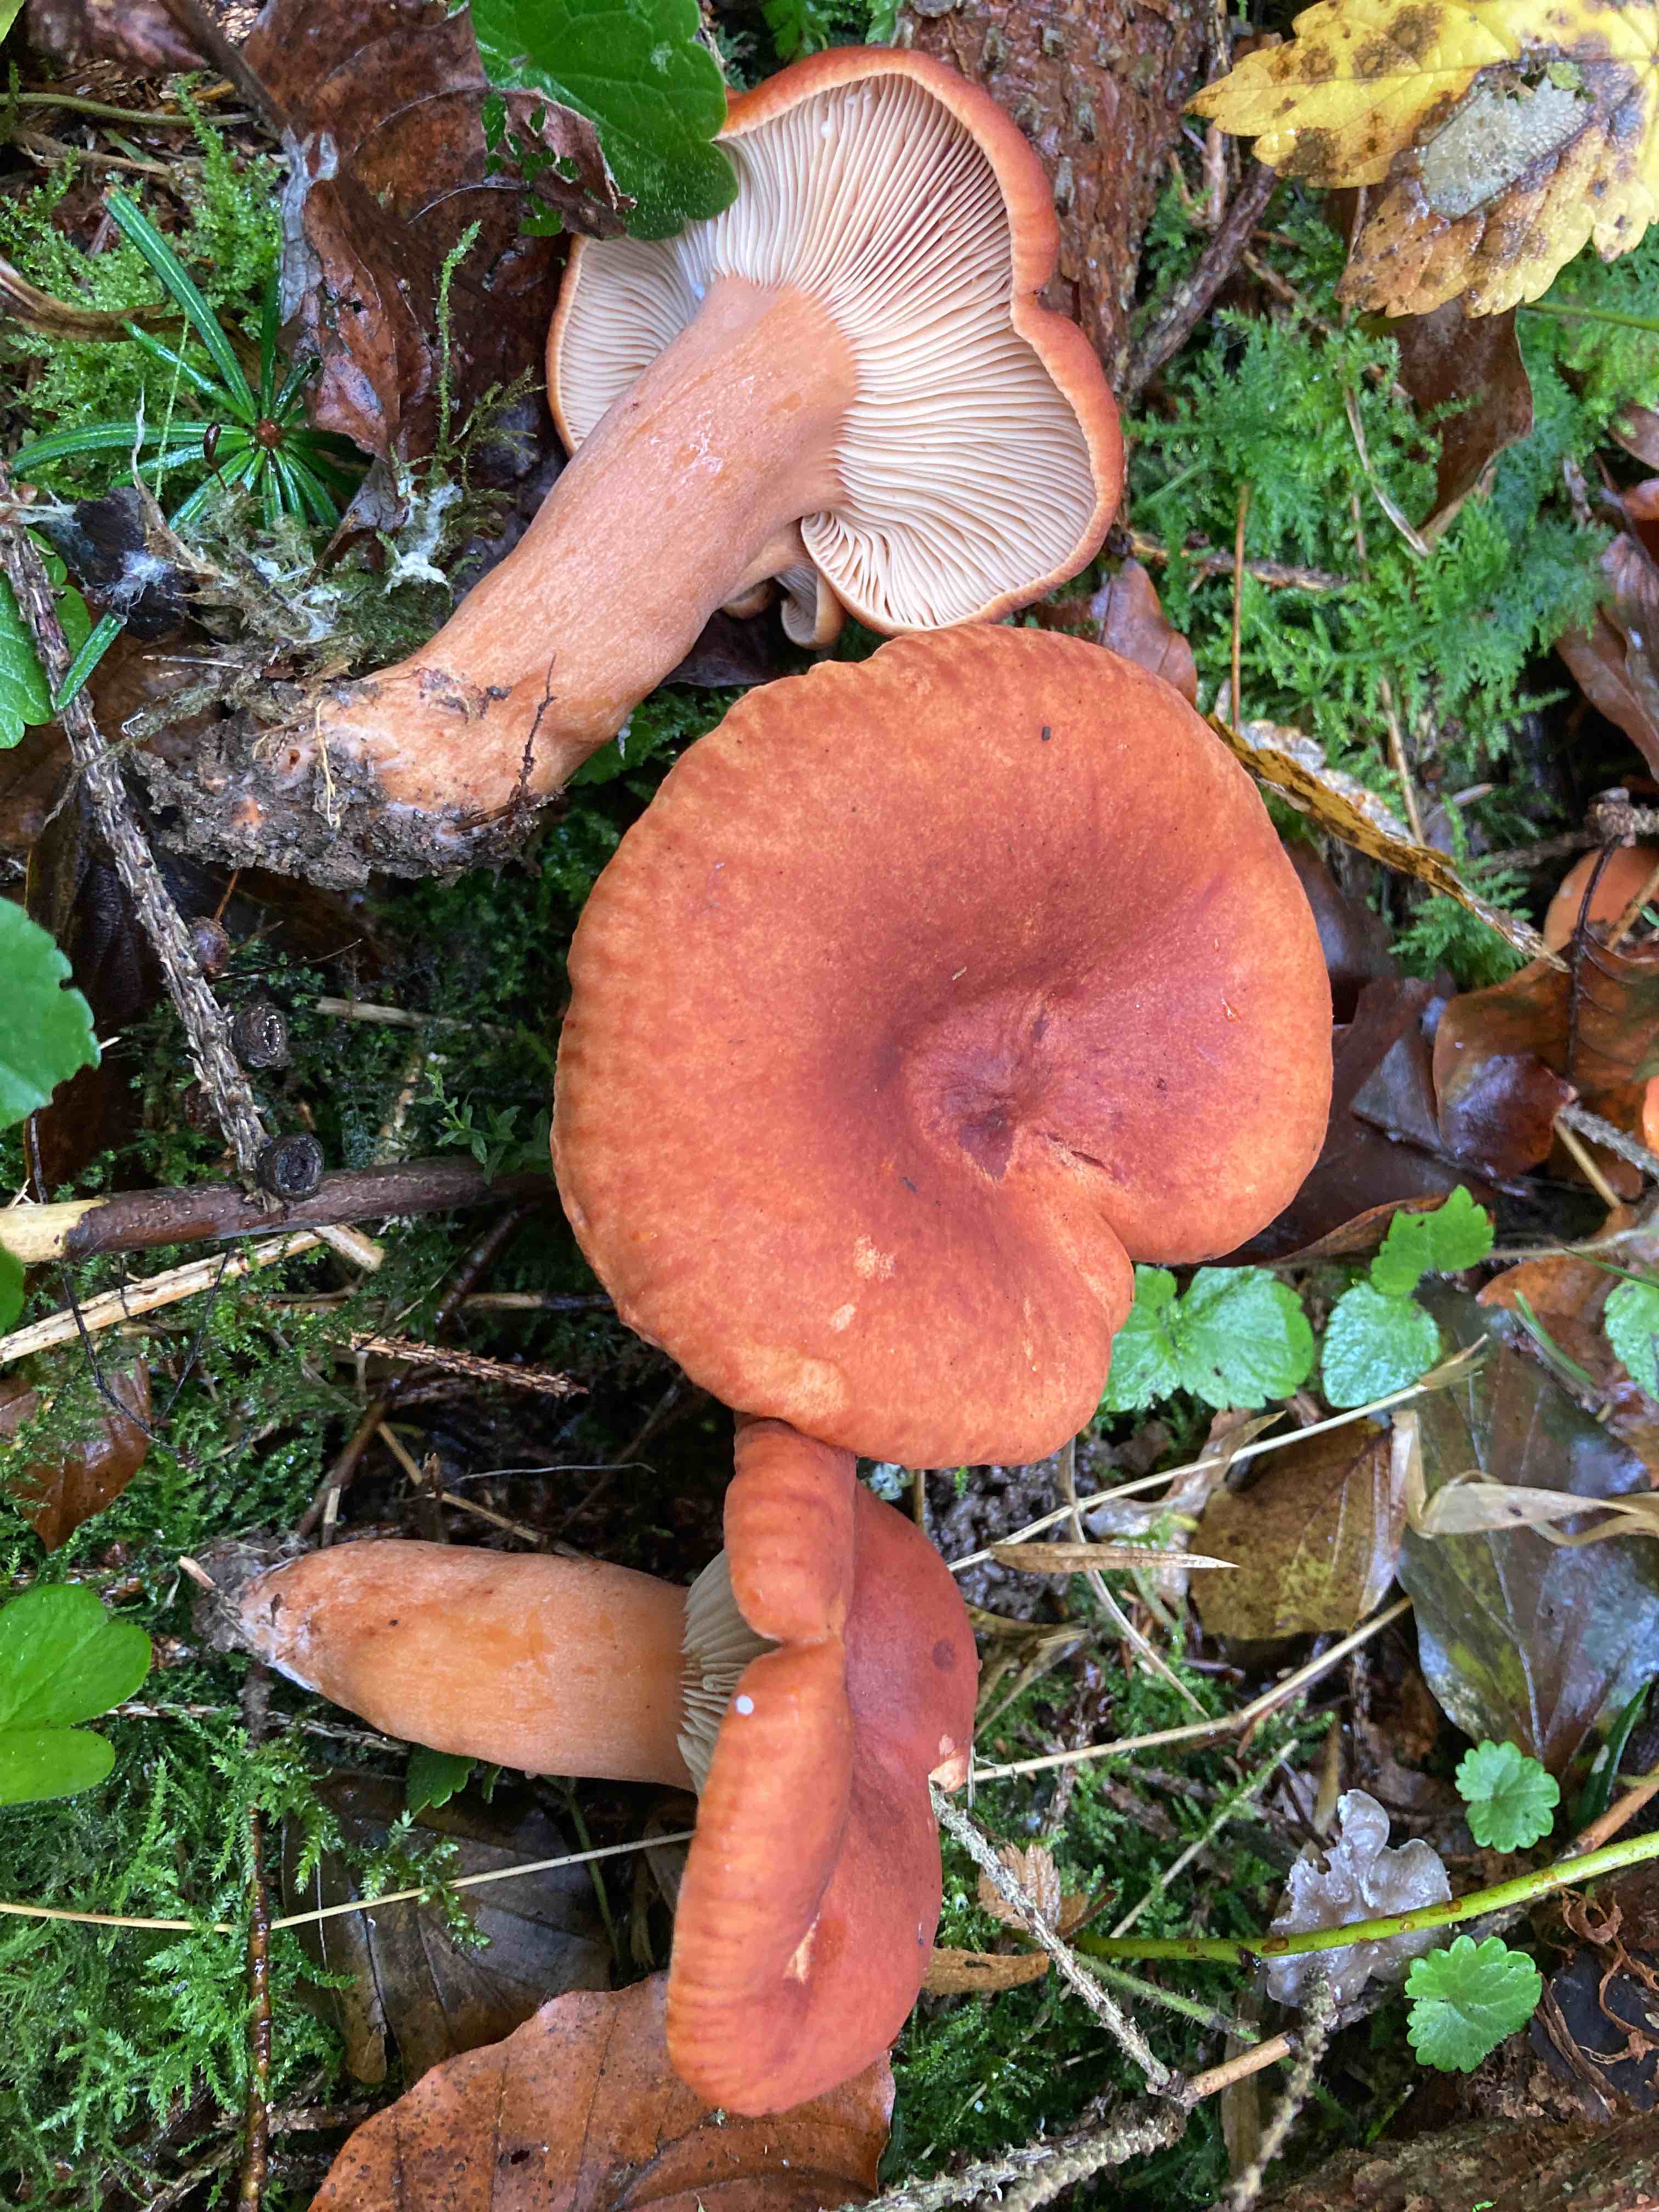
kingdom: Fungi
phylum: Basidiomycota
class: Agaricomycetes
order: Russulales
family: Russulaceae
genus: Lactarius
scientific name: Lactarius fulvissimus
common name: ræve-mælkehat
